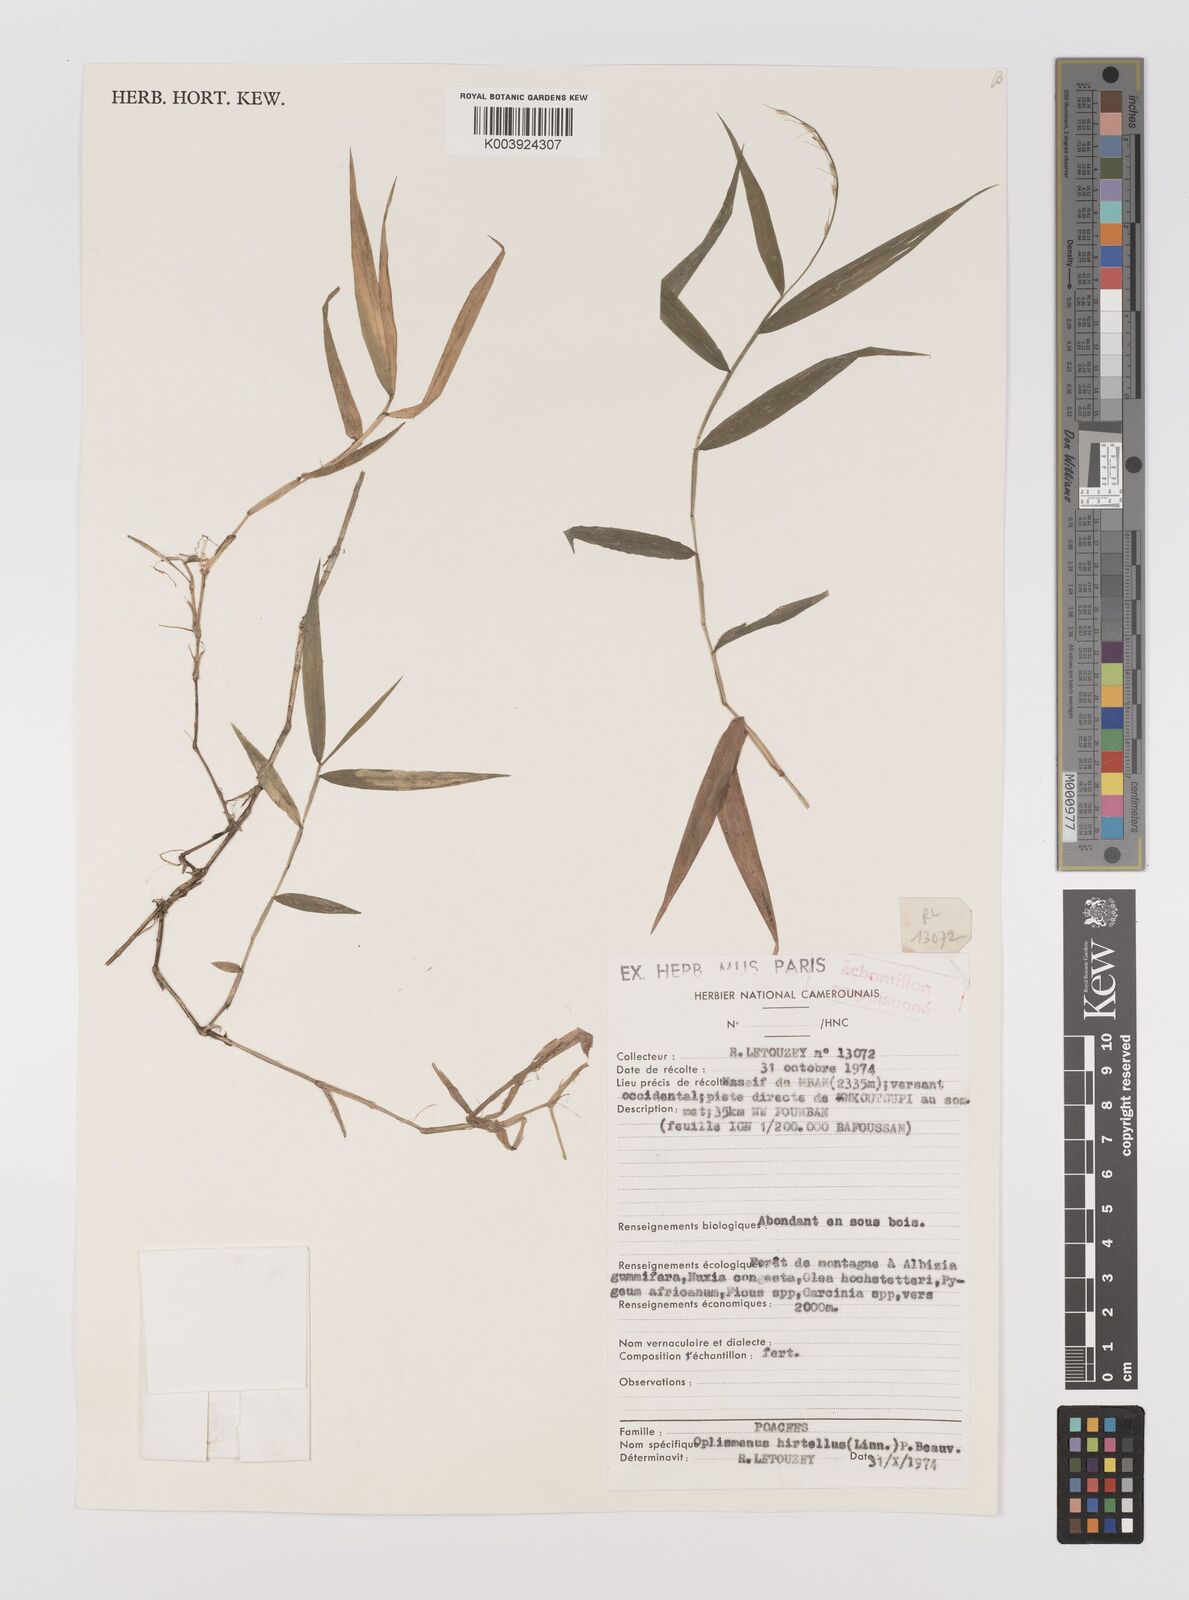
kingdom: Plantae
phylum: Tracheophyta
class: Liliopsida
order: Poales
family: Poaceae
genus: Oplismenus
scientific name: Oplismenus hirtellus
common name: Basketgrass
